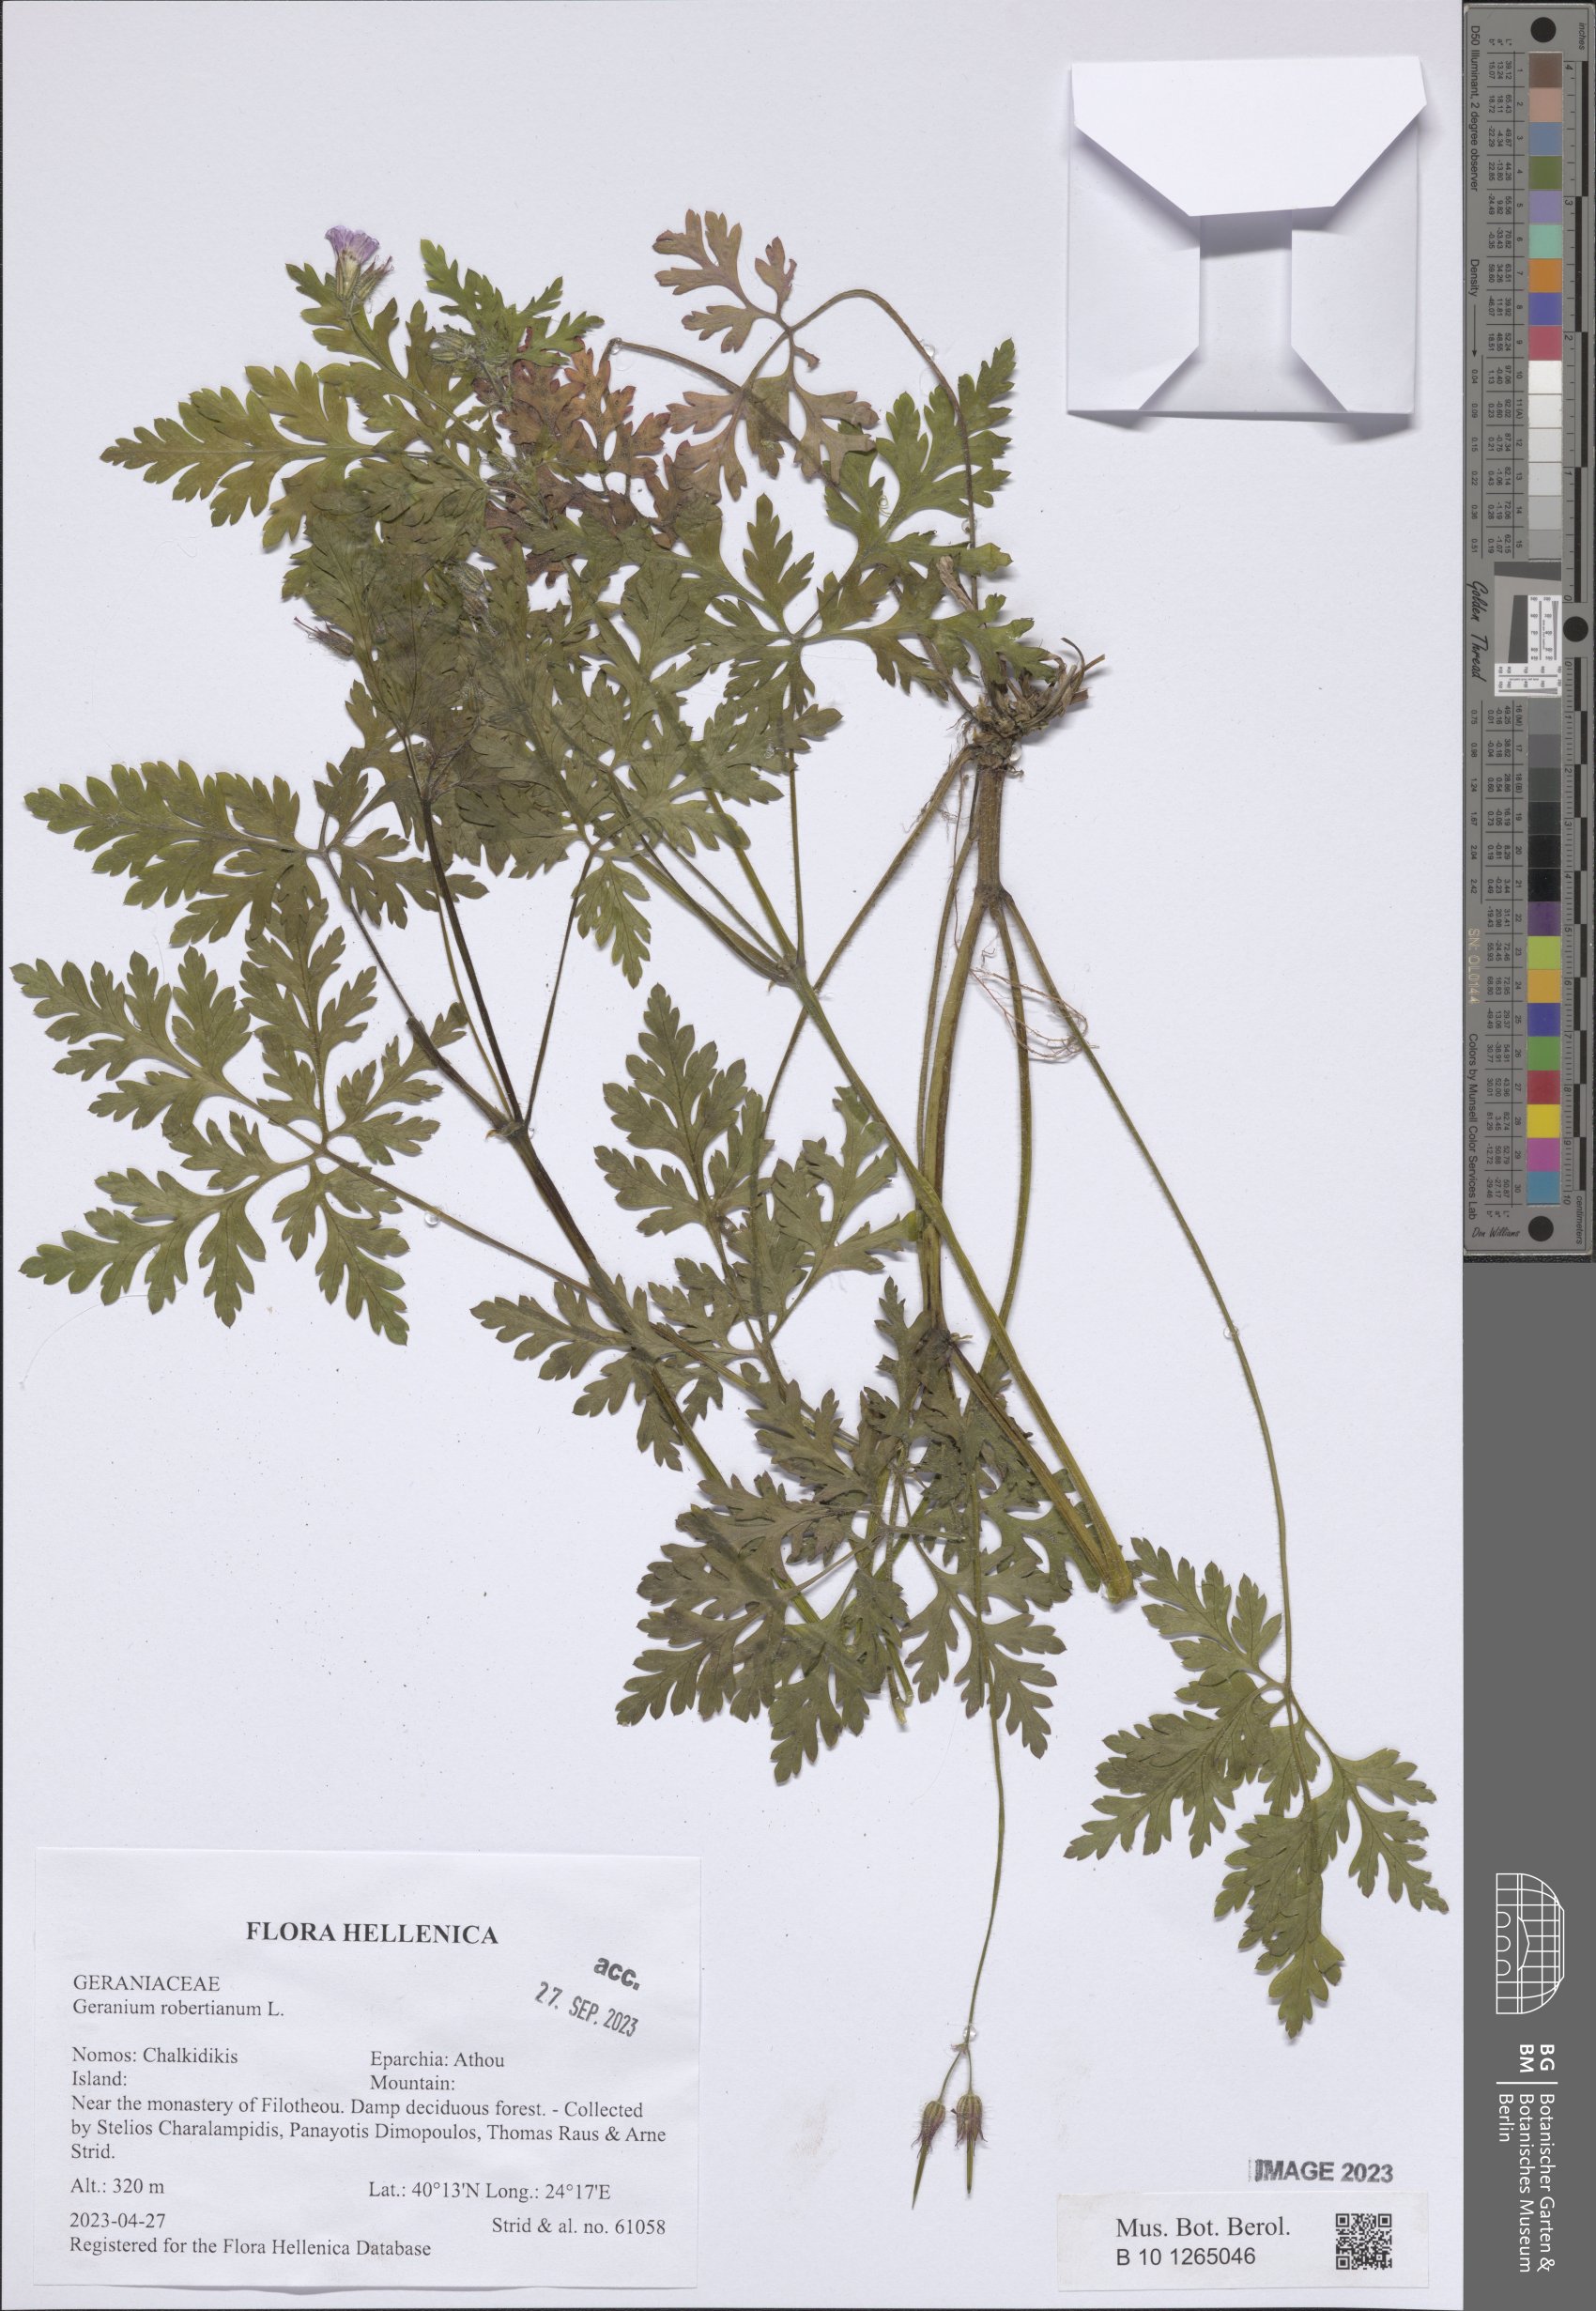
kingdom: Plantae
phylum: Tracheophyta
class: Magnoliopsida
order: Geraniales
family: Geraniaceae
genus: Geranium
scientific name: Geranium robertianum
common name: Herb-robert
